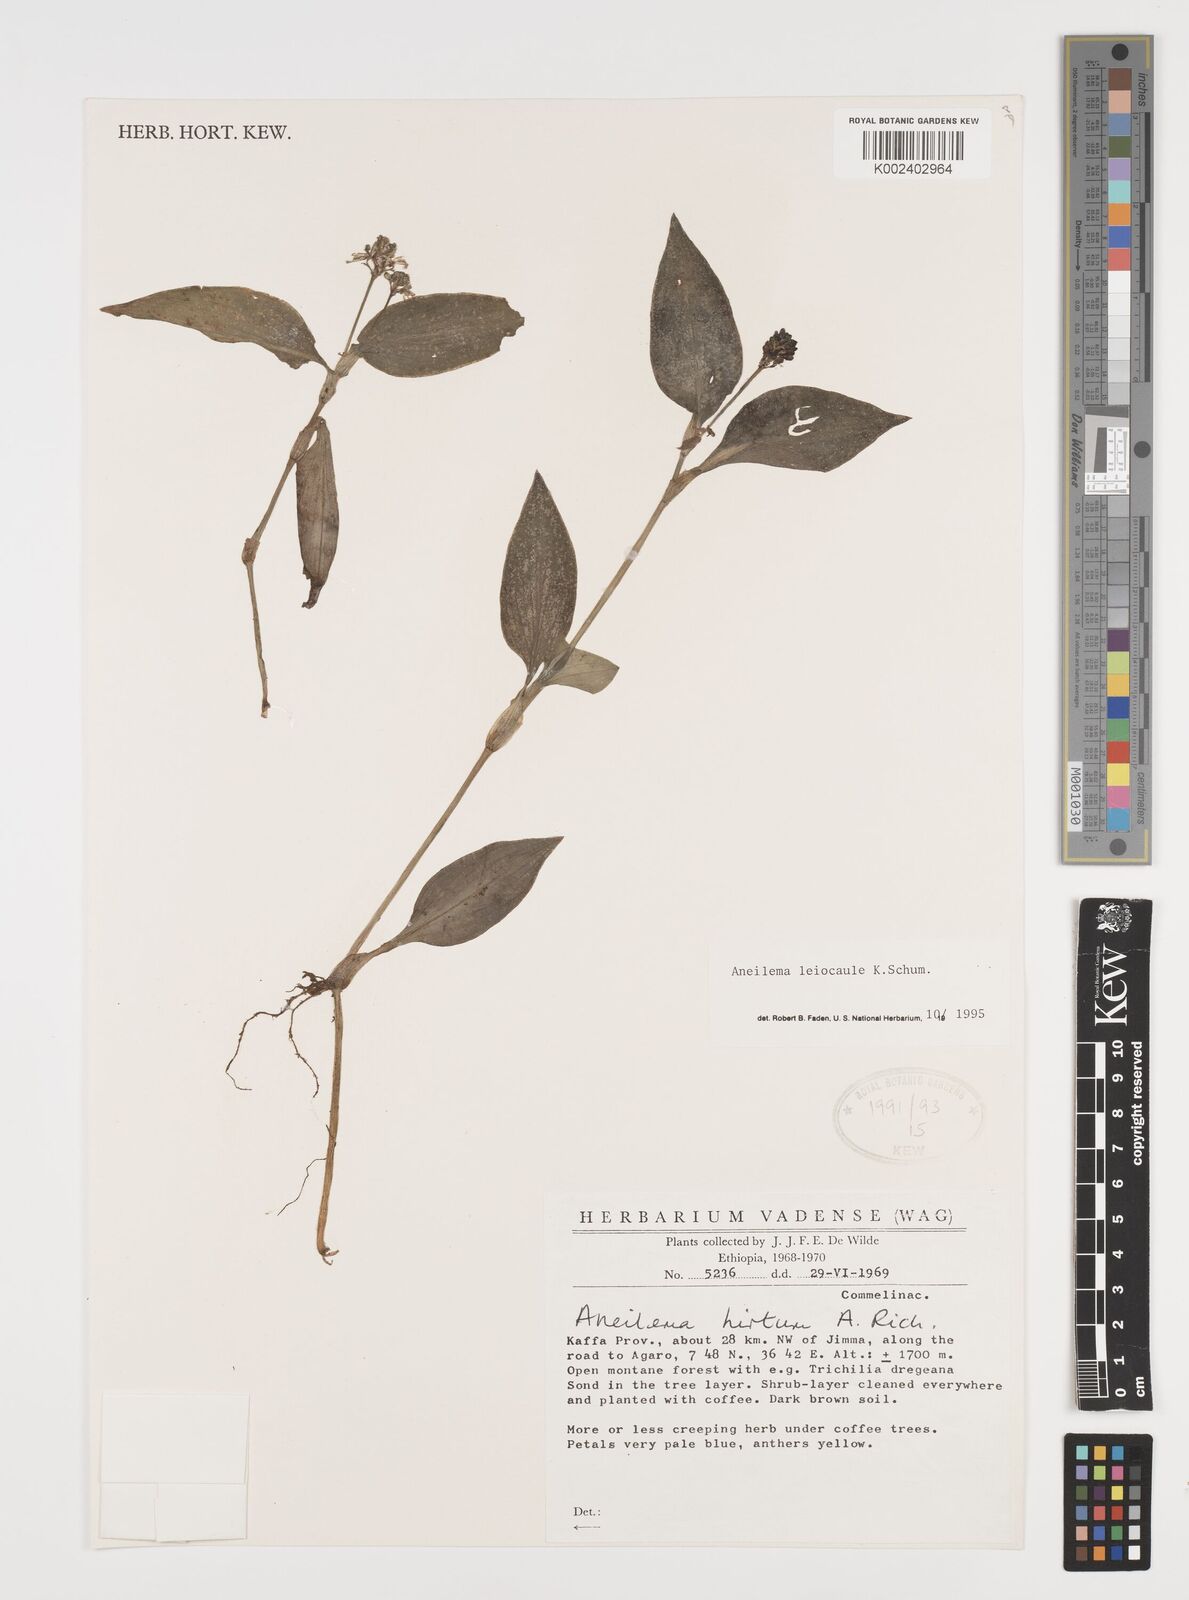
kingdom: Plantae
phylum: Tracheophyta
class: Liliopsida
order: Commelinales
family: Commelinaceae
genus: Aneilema
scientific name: Aneilema leiocaule
